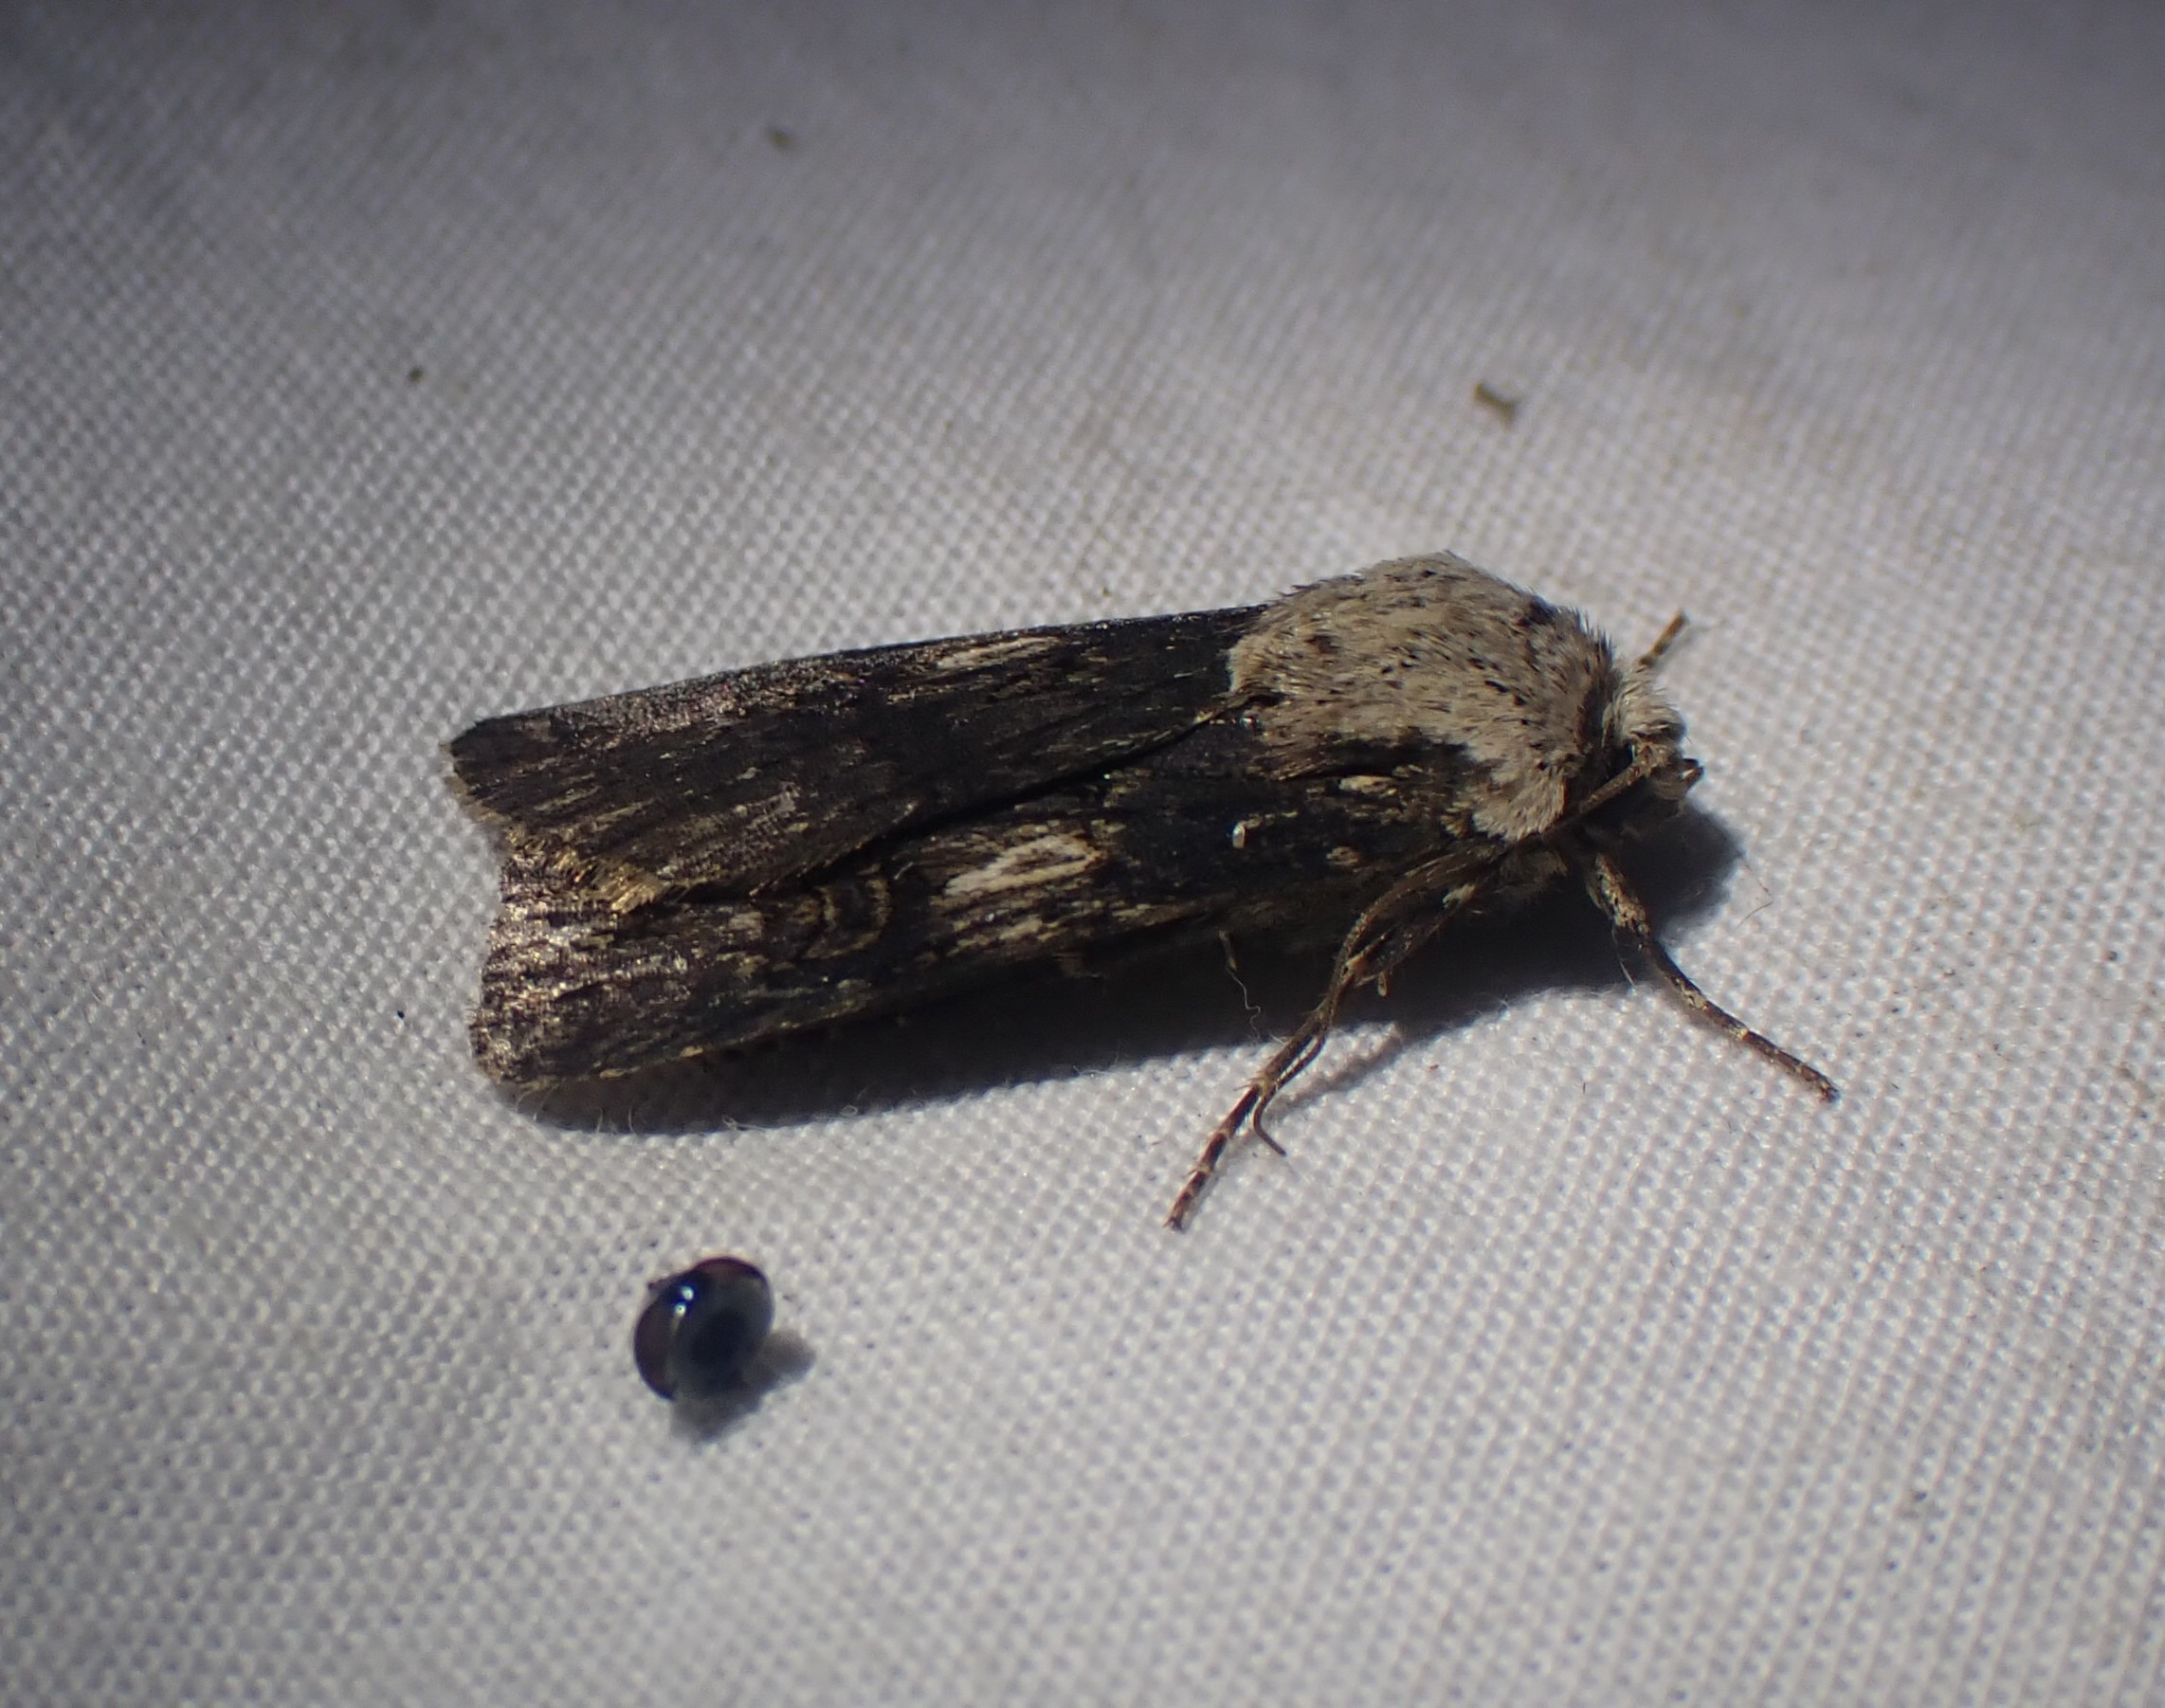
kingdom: Animalia
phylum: Arthropoda
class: Insecta
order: Lepidoptera
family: Noctuidae
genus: Agrotis
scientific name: Agrotis puta
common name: Frønnet landmand
